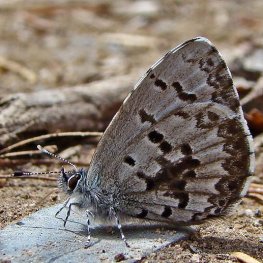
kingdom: Animalia
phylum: Arthropoda
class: Insecta
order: Lepidoptera
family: Lycaenidae
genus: Celastrina
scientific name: Celastrina lucia
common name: Northern Spring Azure
